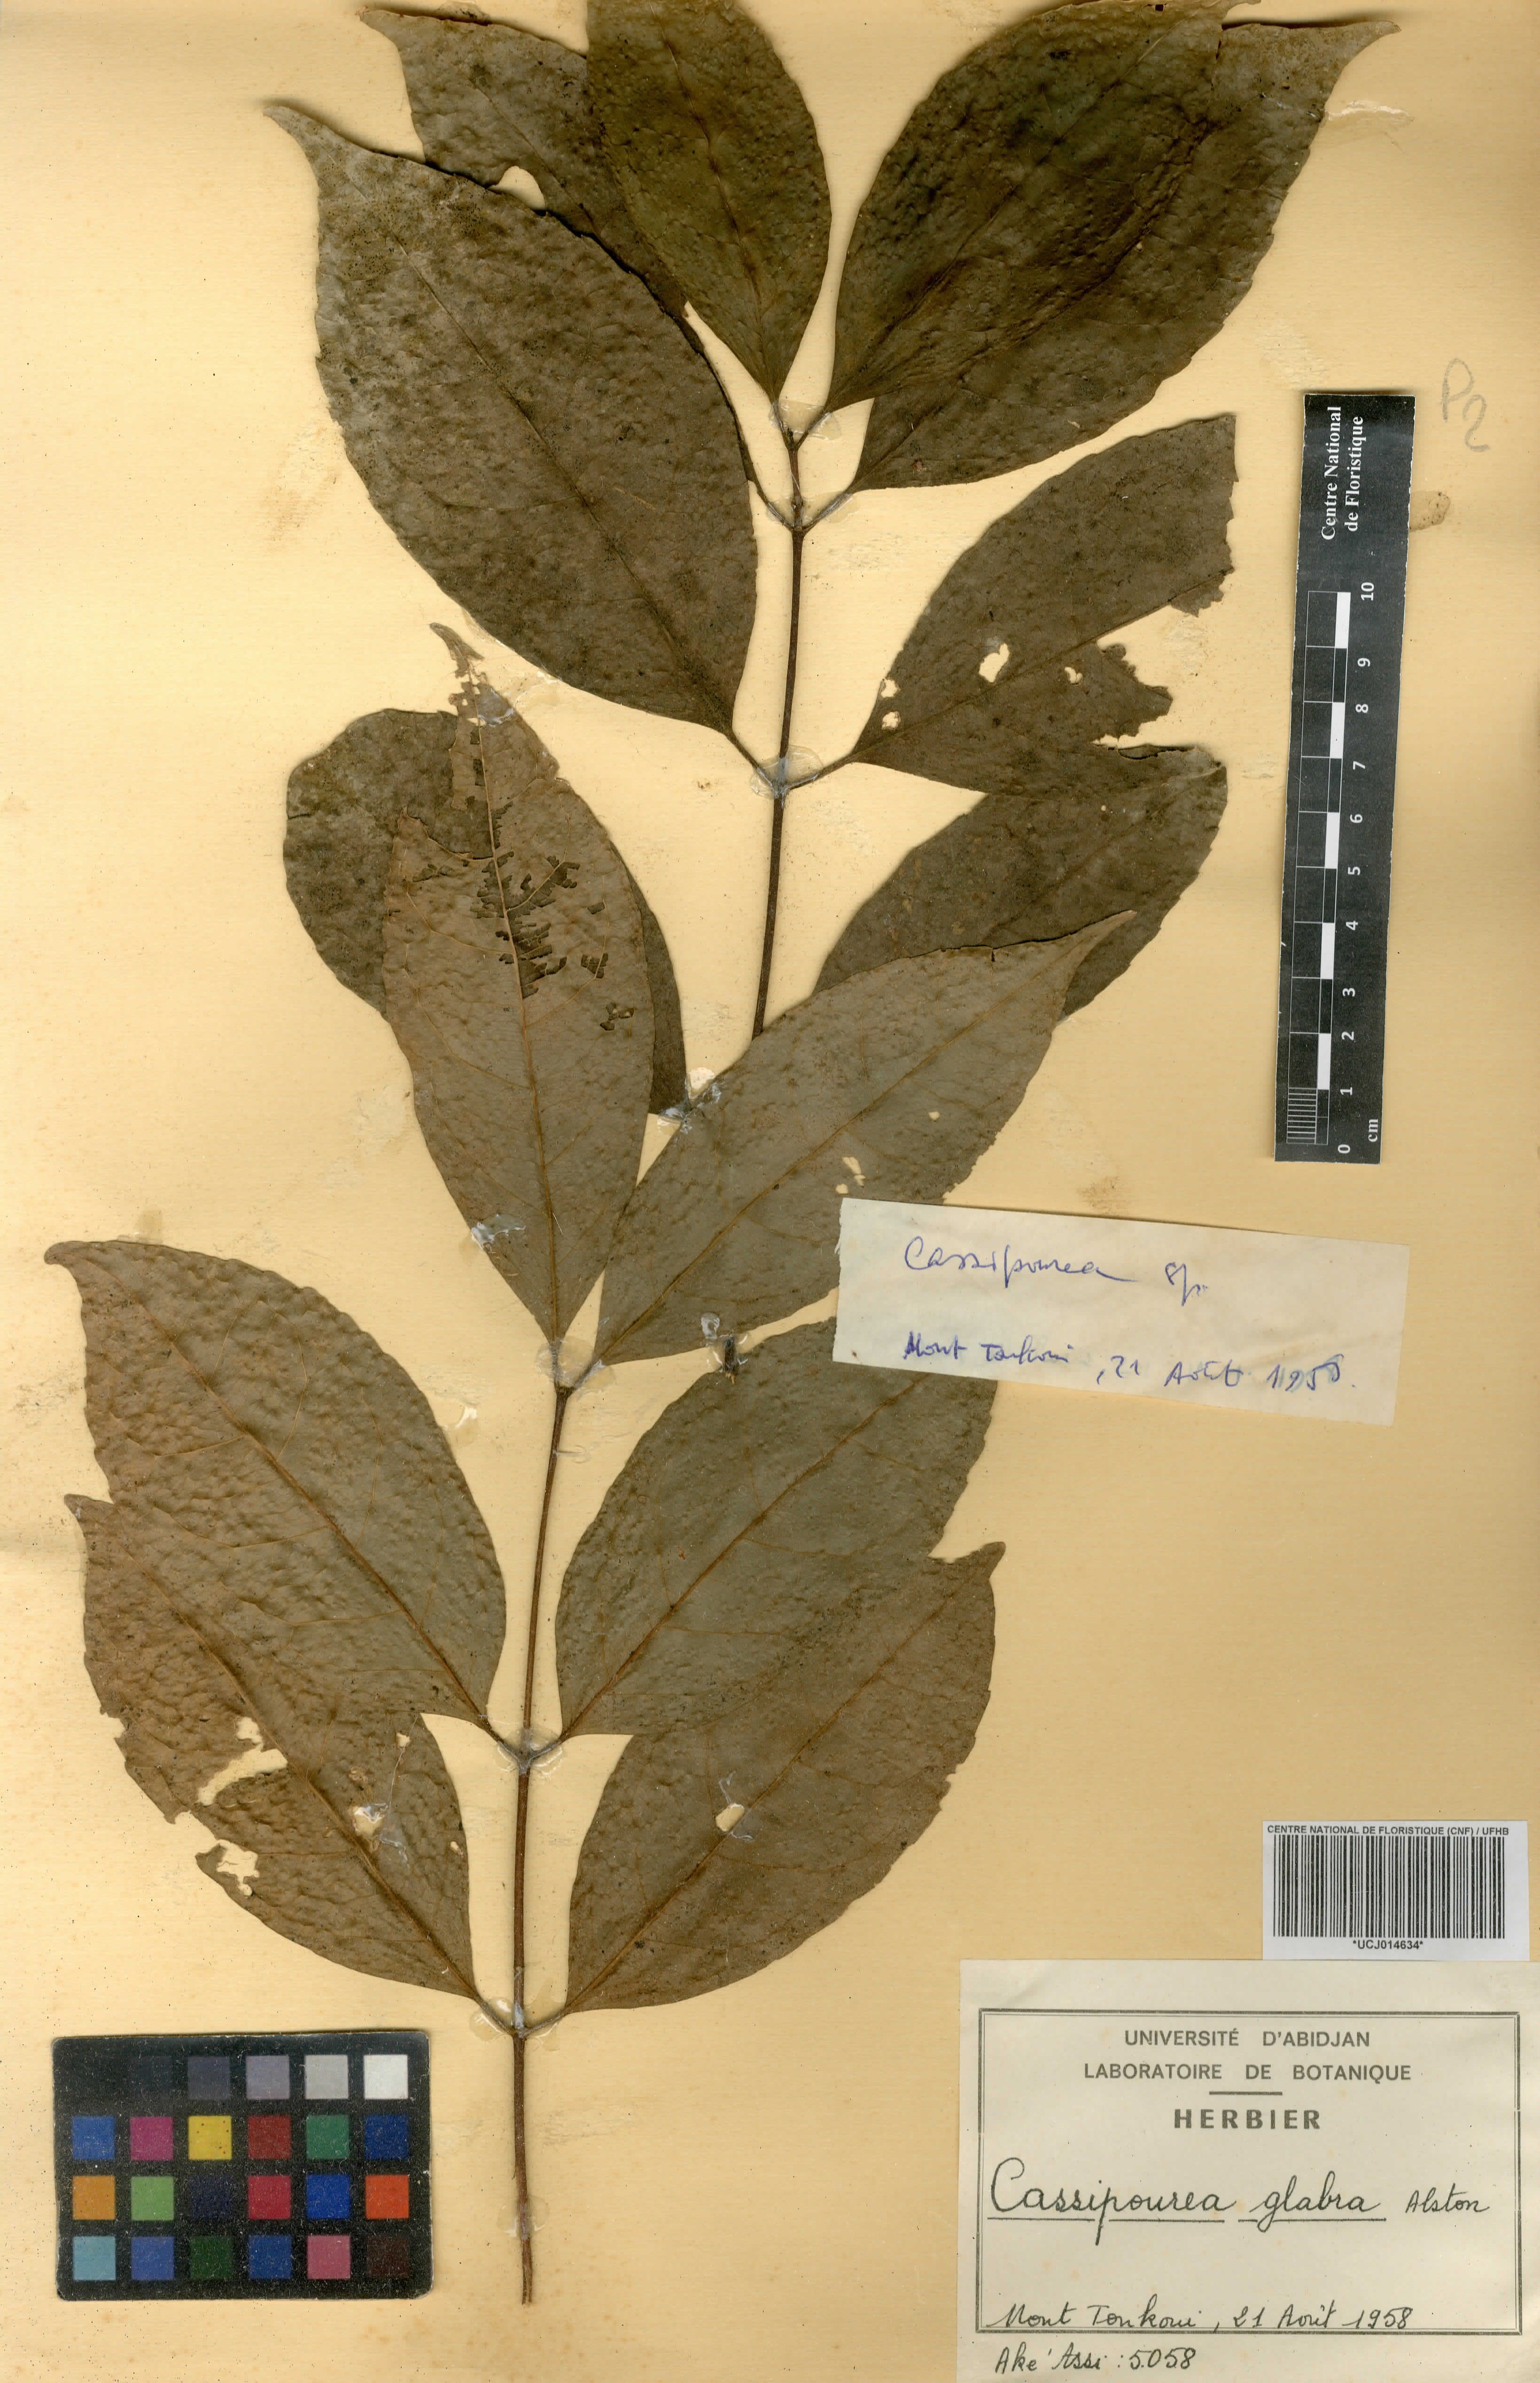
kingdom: Plantae
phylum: Tracheophyta
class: Magnoliopsida
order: Malpighiales
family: Rhizophoraceae
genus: Cassipourea
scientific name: Cassipourea gummiflua
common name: Large-leaved onionwood
